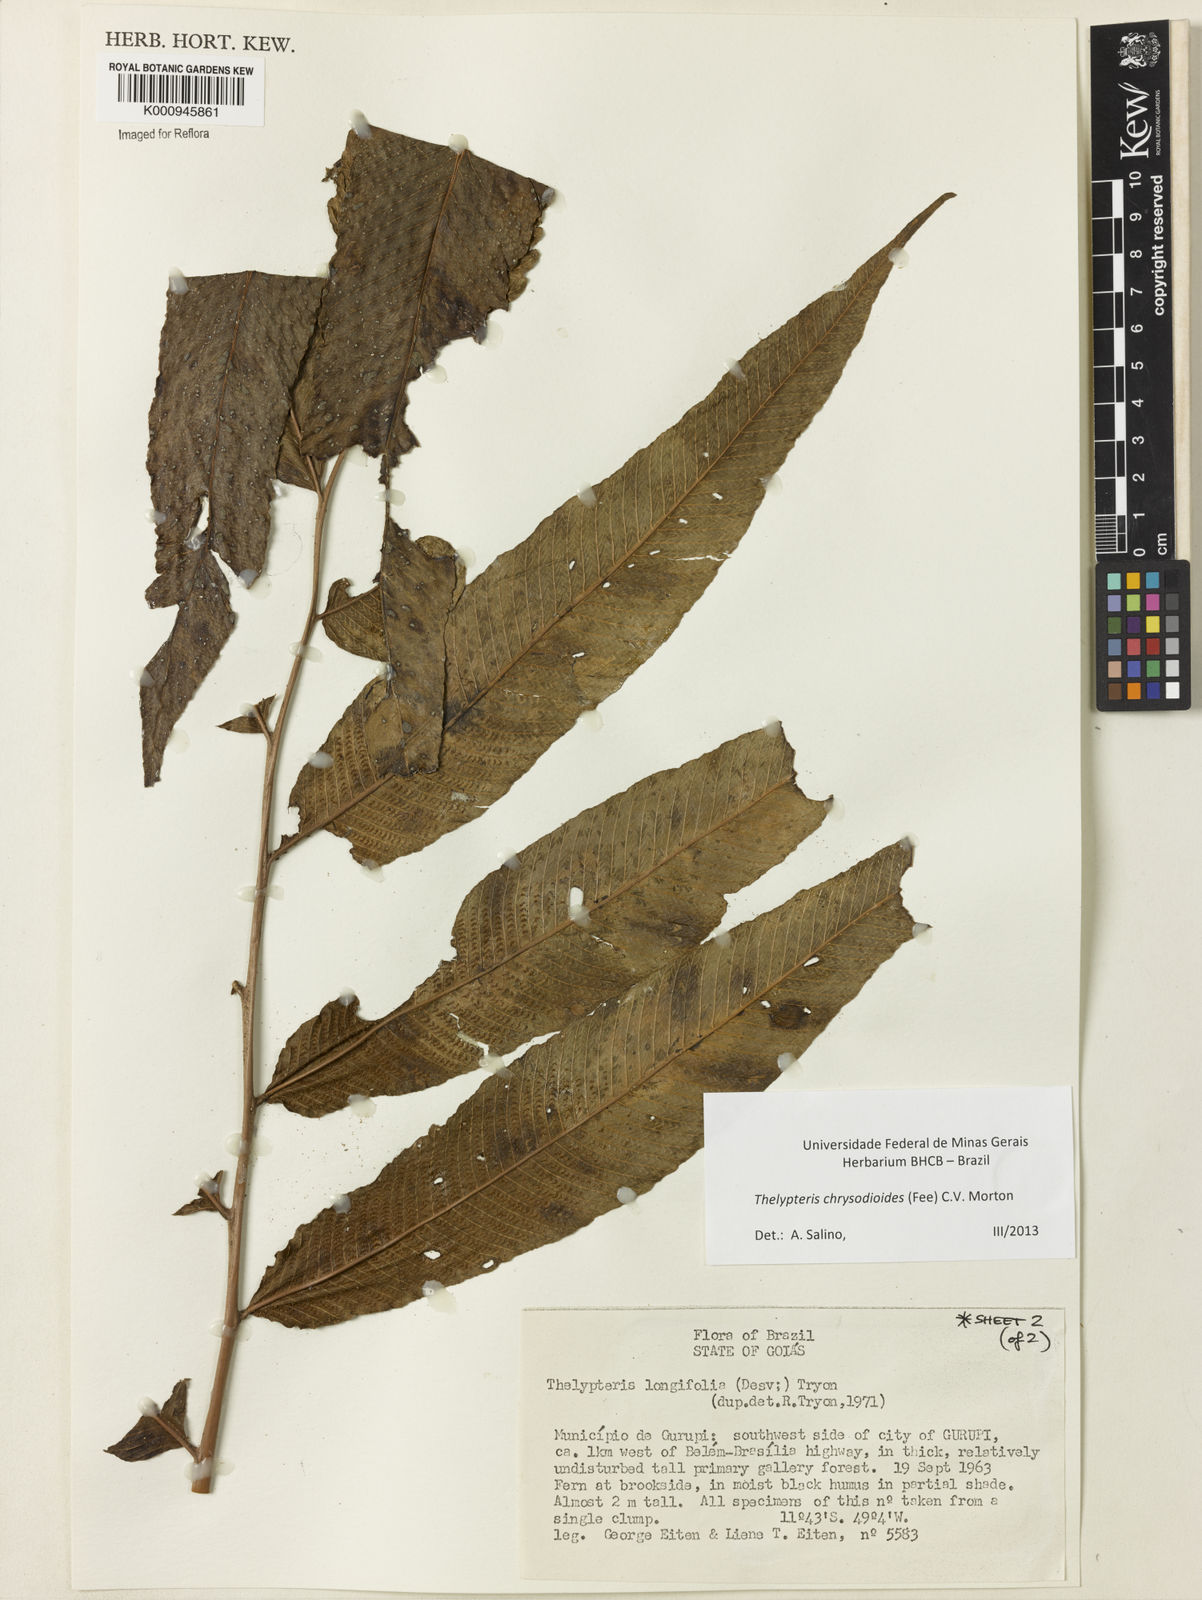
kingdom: Plantae
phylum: Tracheophyta
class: Polypodiopsida
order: Polypodiales
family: Thelypteridaceae
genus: Meniscium
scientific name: Meniscium
